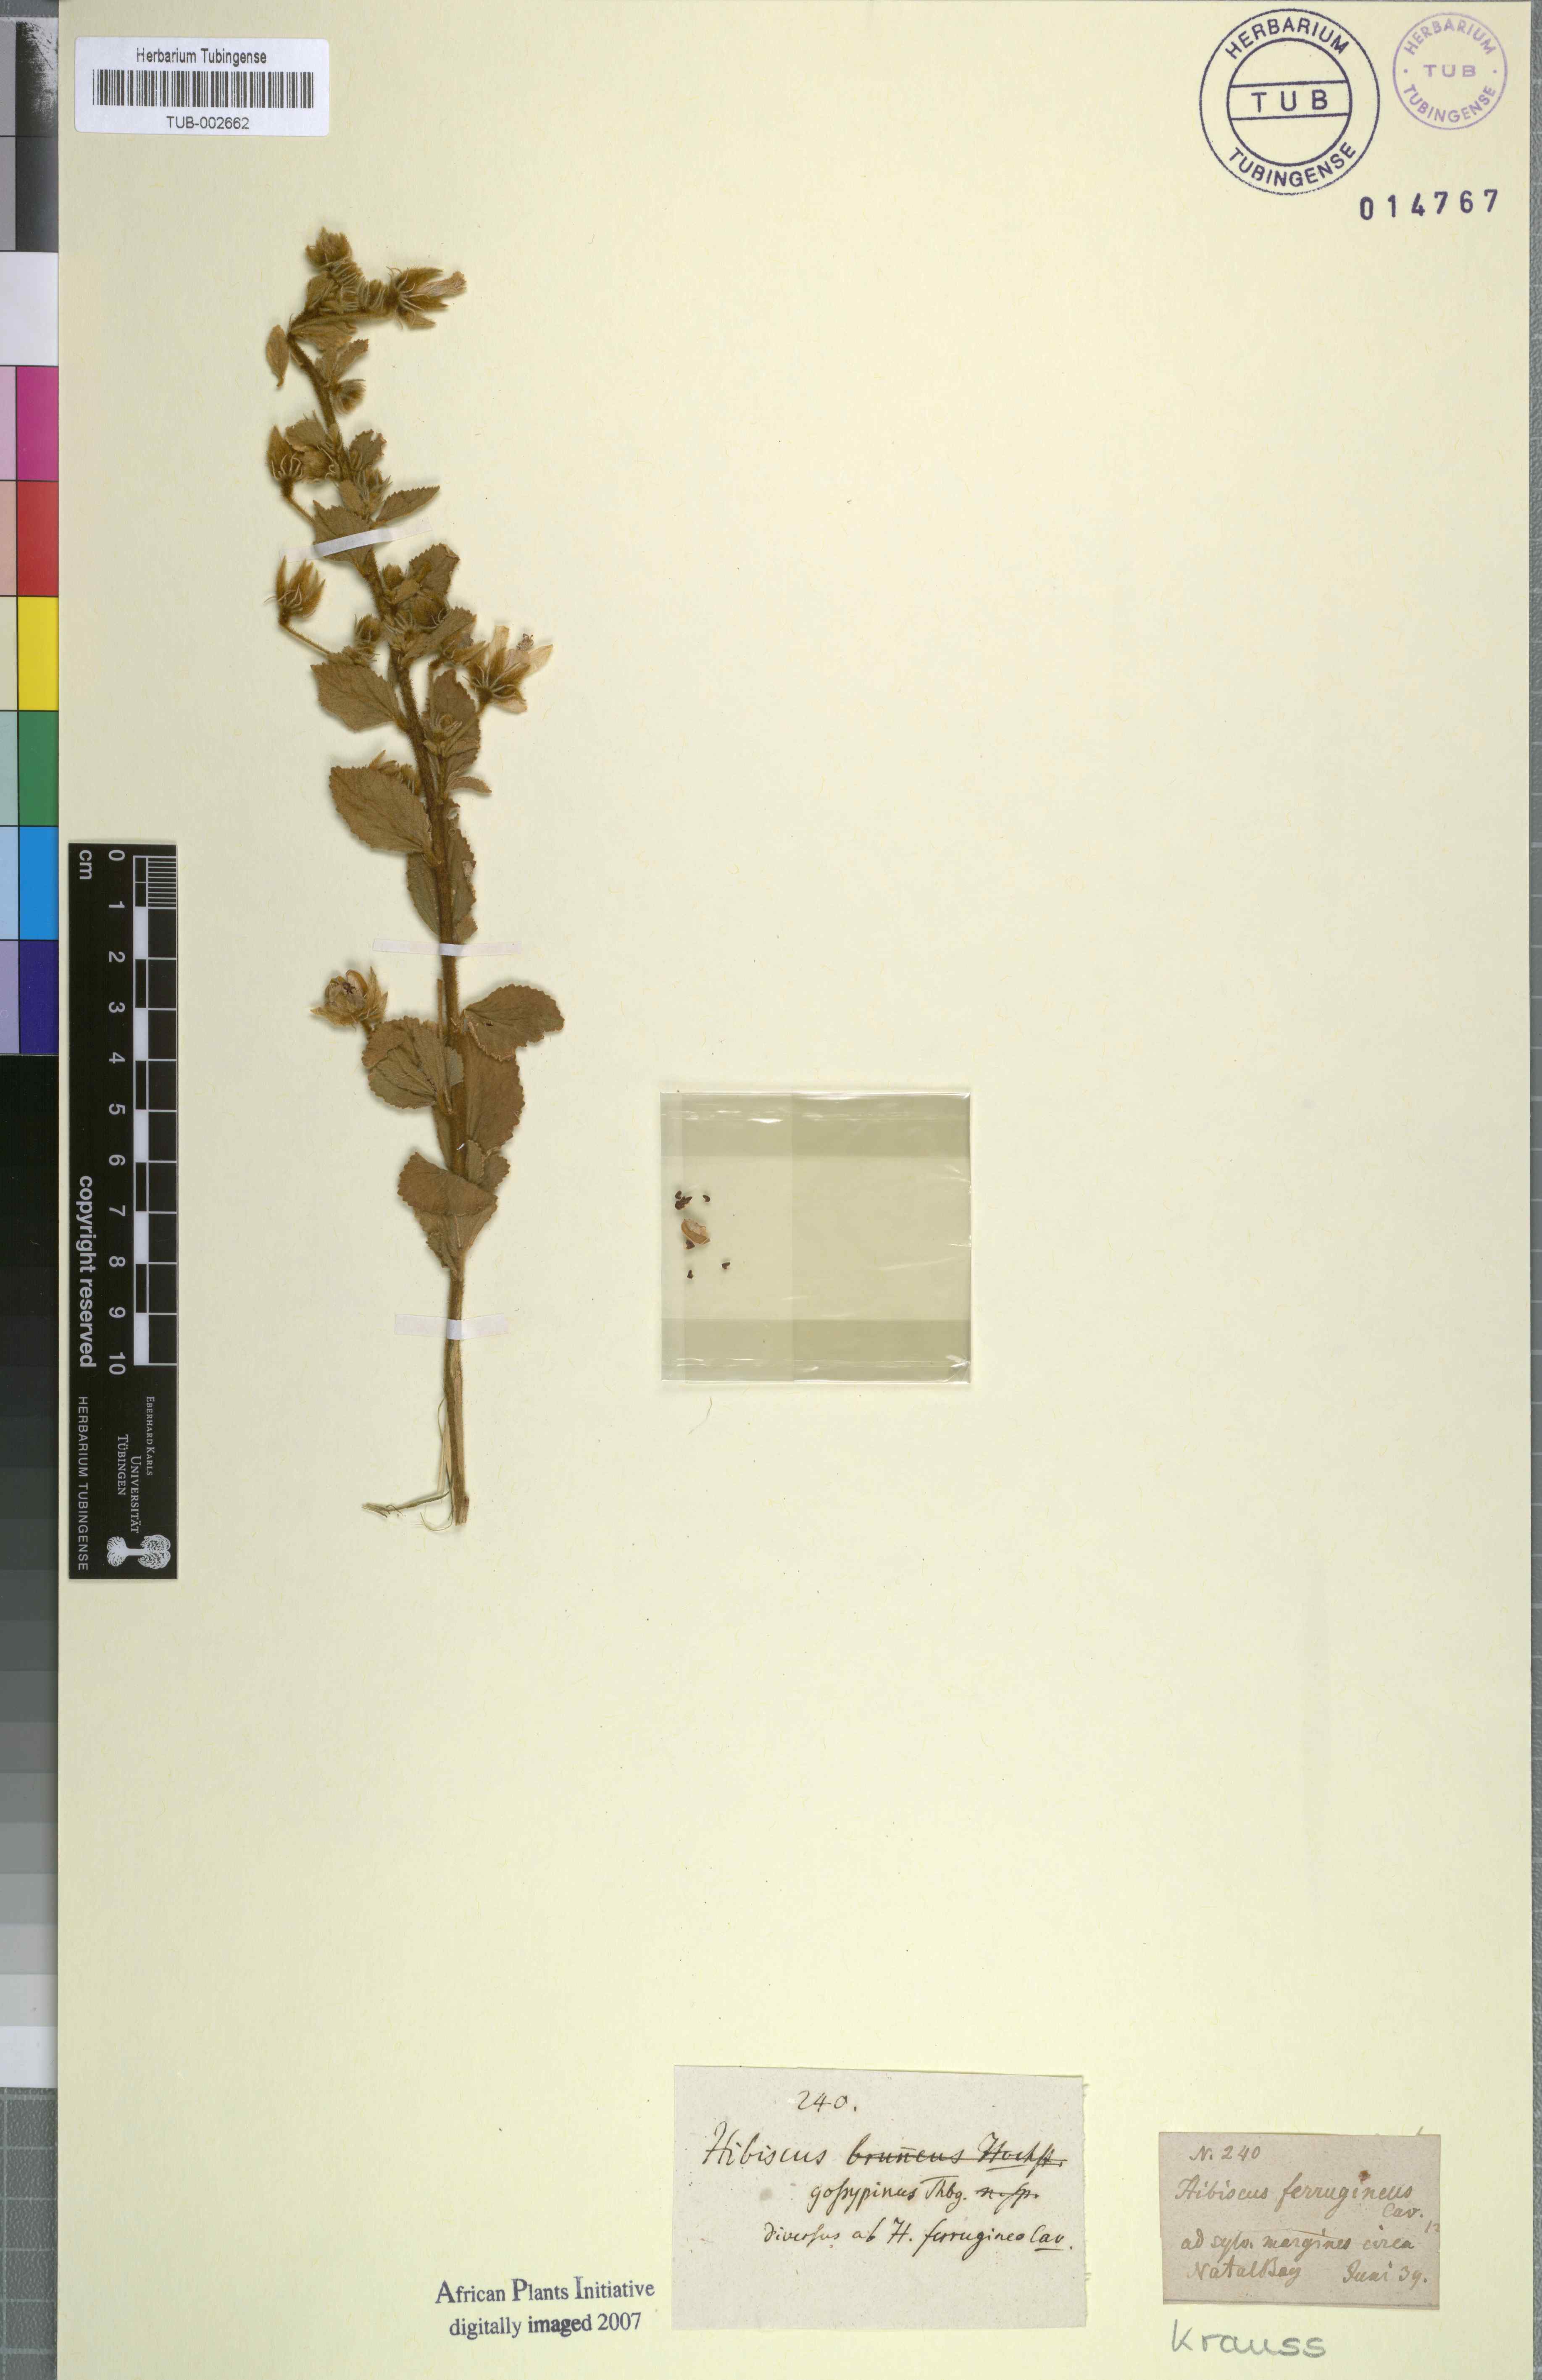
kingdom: Plantae
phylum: Tracheophyta
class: Magnoliopsida
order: Malvales
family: Malvaceae
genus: Hibiscus
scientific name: Hibiscus gossypinus
